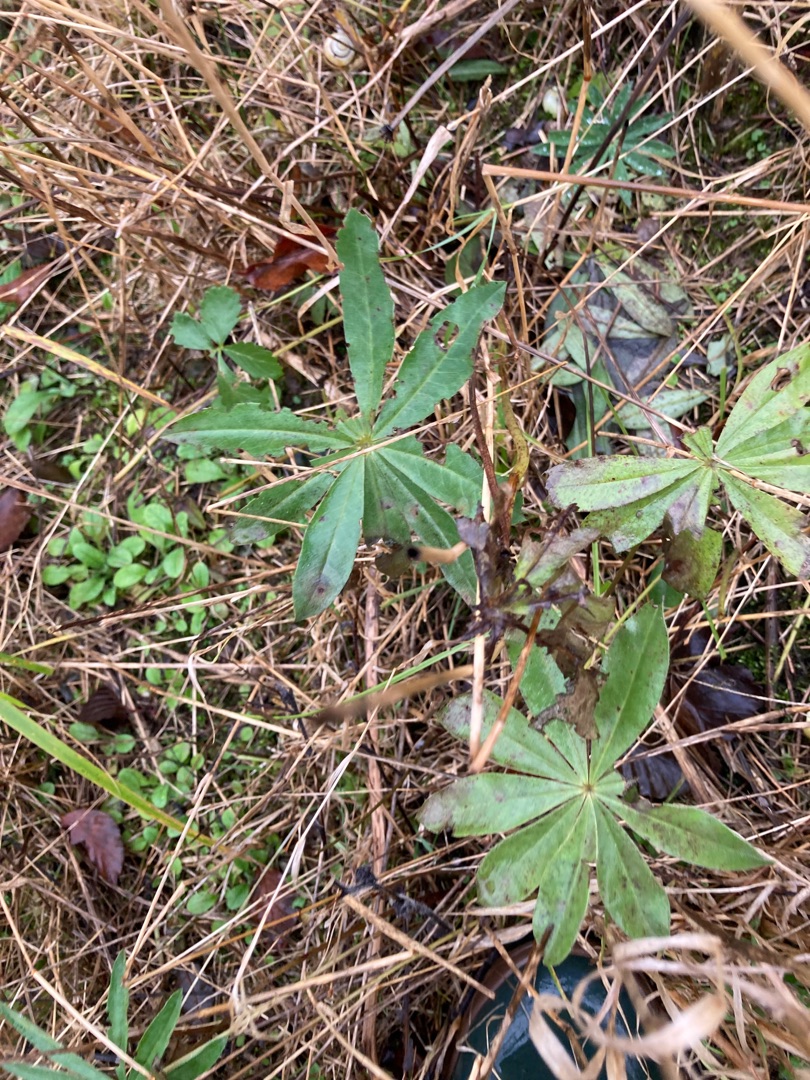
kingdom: Plantae
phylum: Tracheophyta
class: Magnoliopsida
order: Fabales
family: Fabaceae
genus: Lupinus
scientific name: Lupinus polyphyllus
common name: Mangebladet lupin
